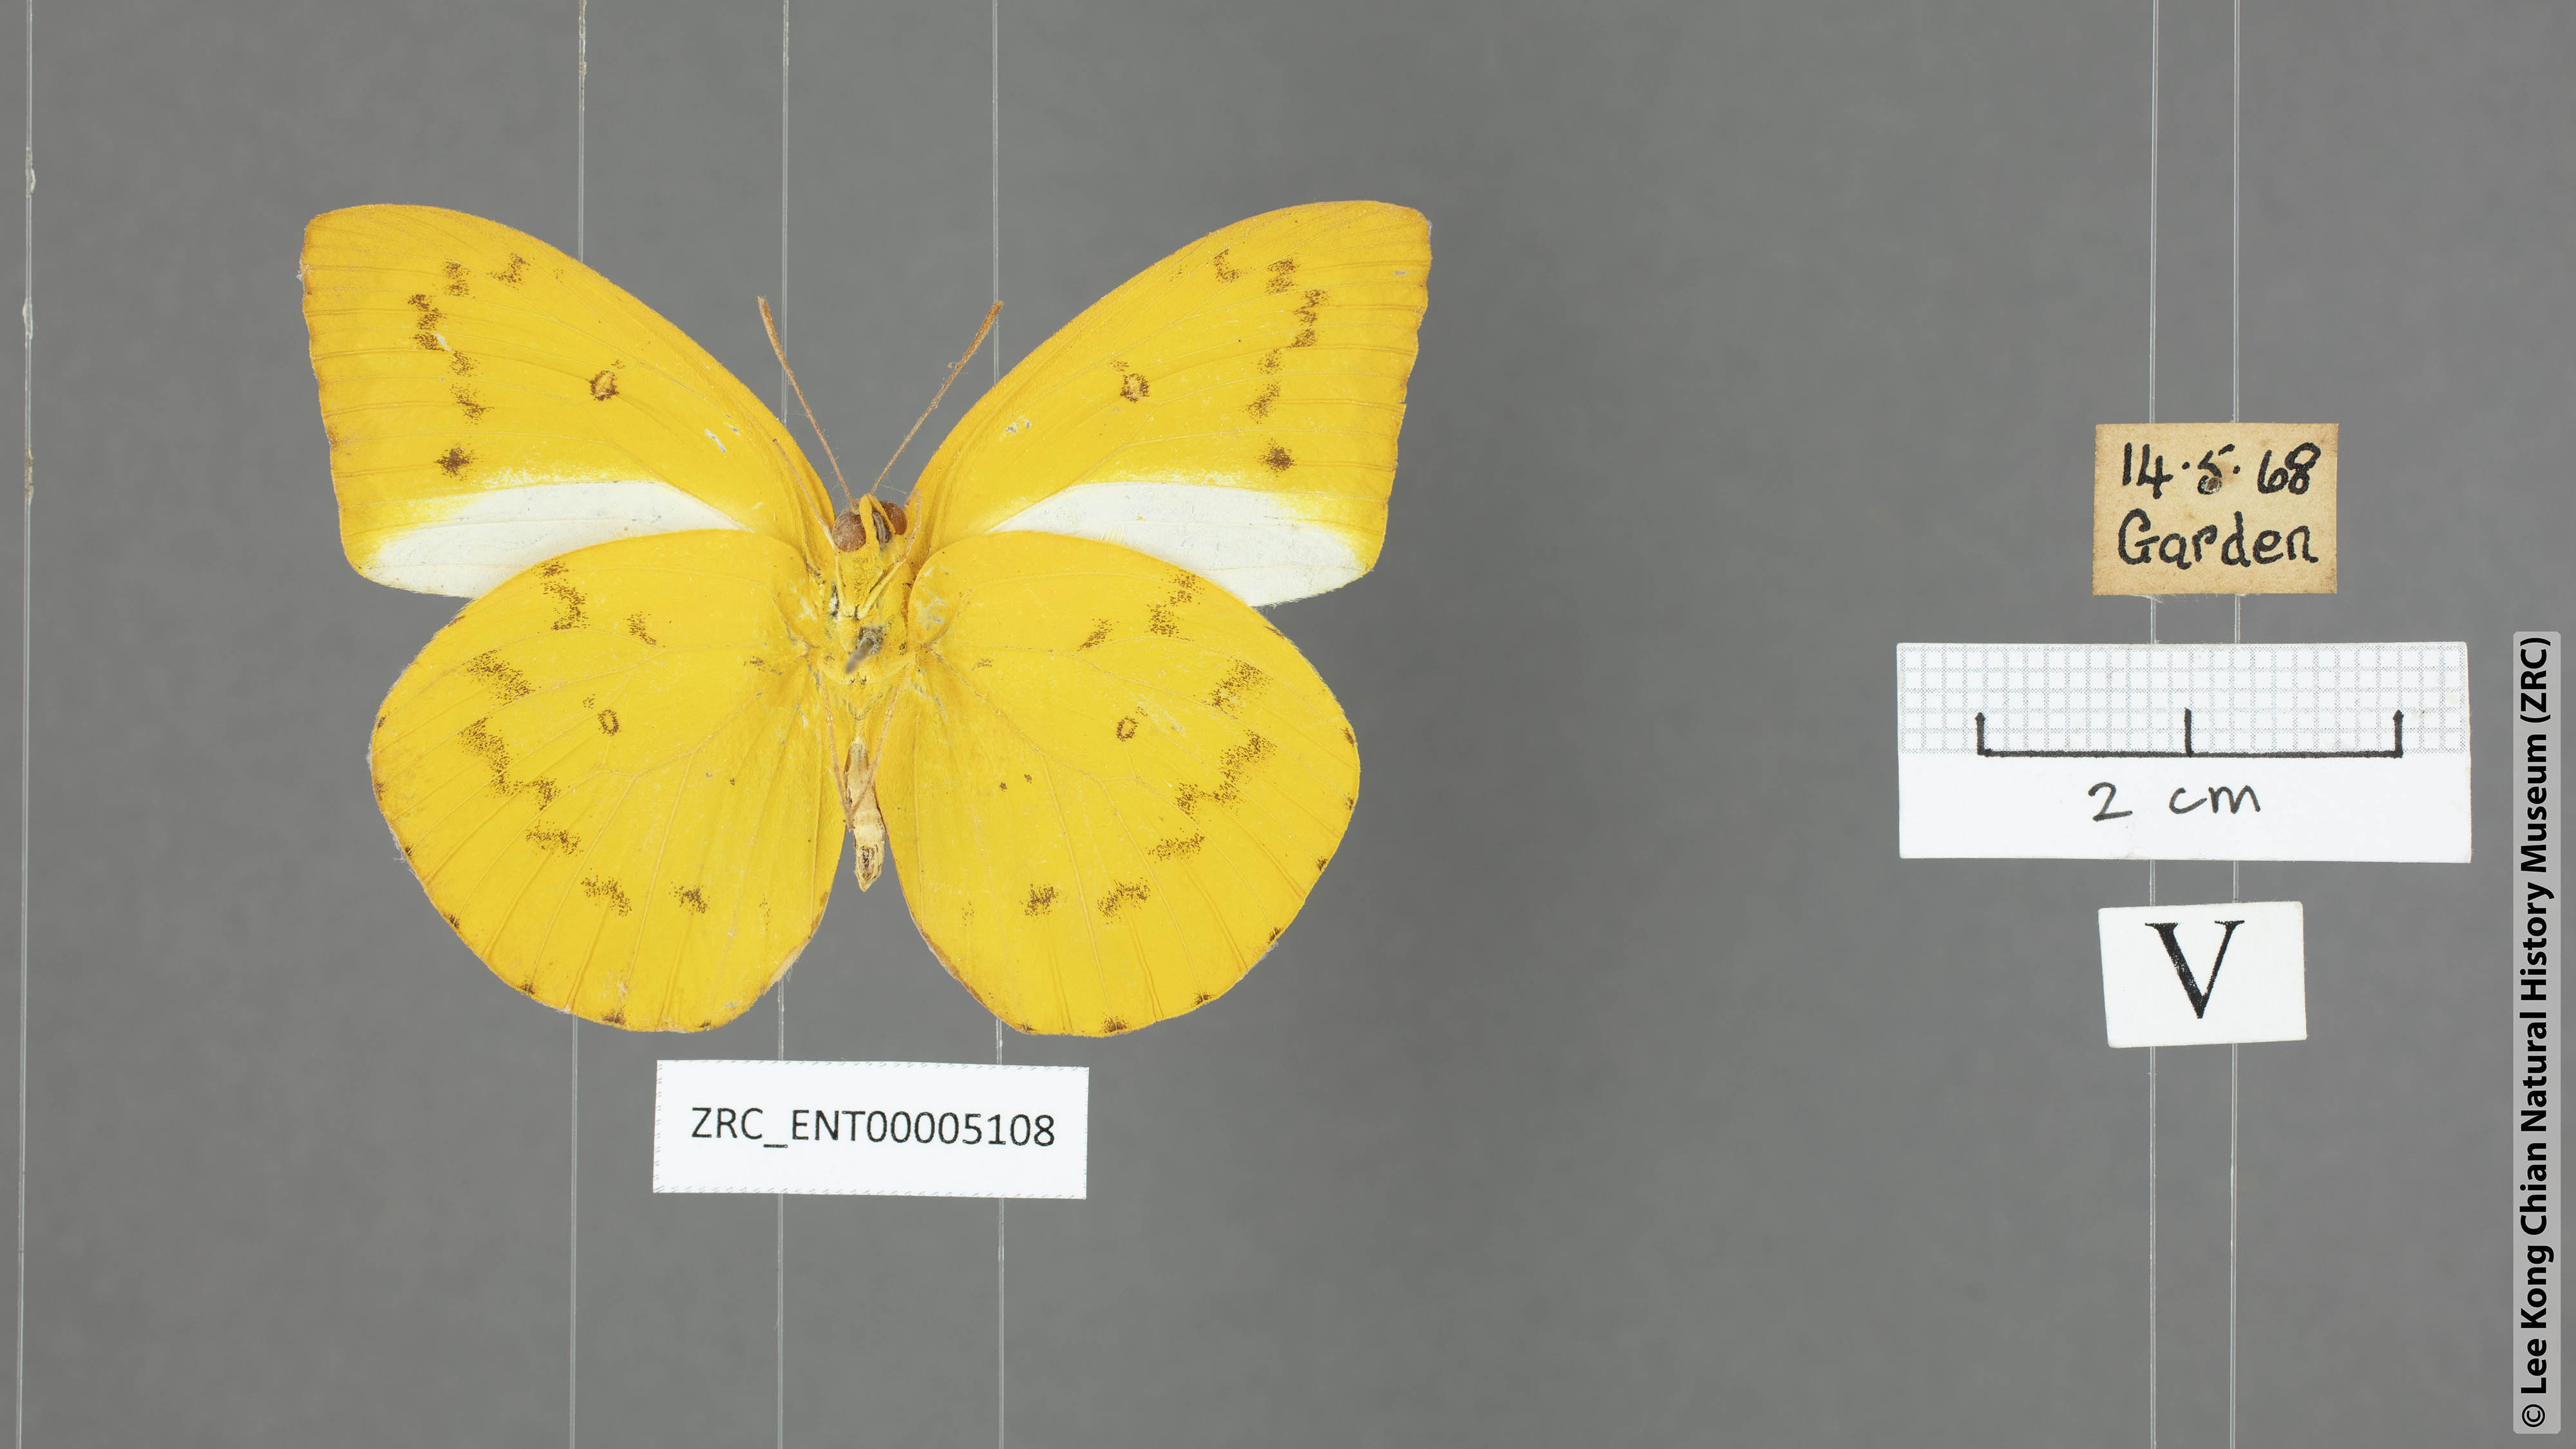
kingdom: Animalia
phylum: Arthropoda
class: Insecta
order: Lepidoptera
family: Pieridae
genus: Catopsilia
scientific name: Catopsilia scylla
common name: Orange emigrant
